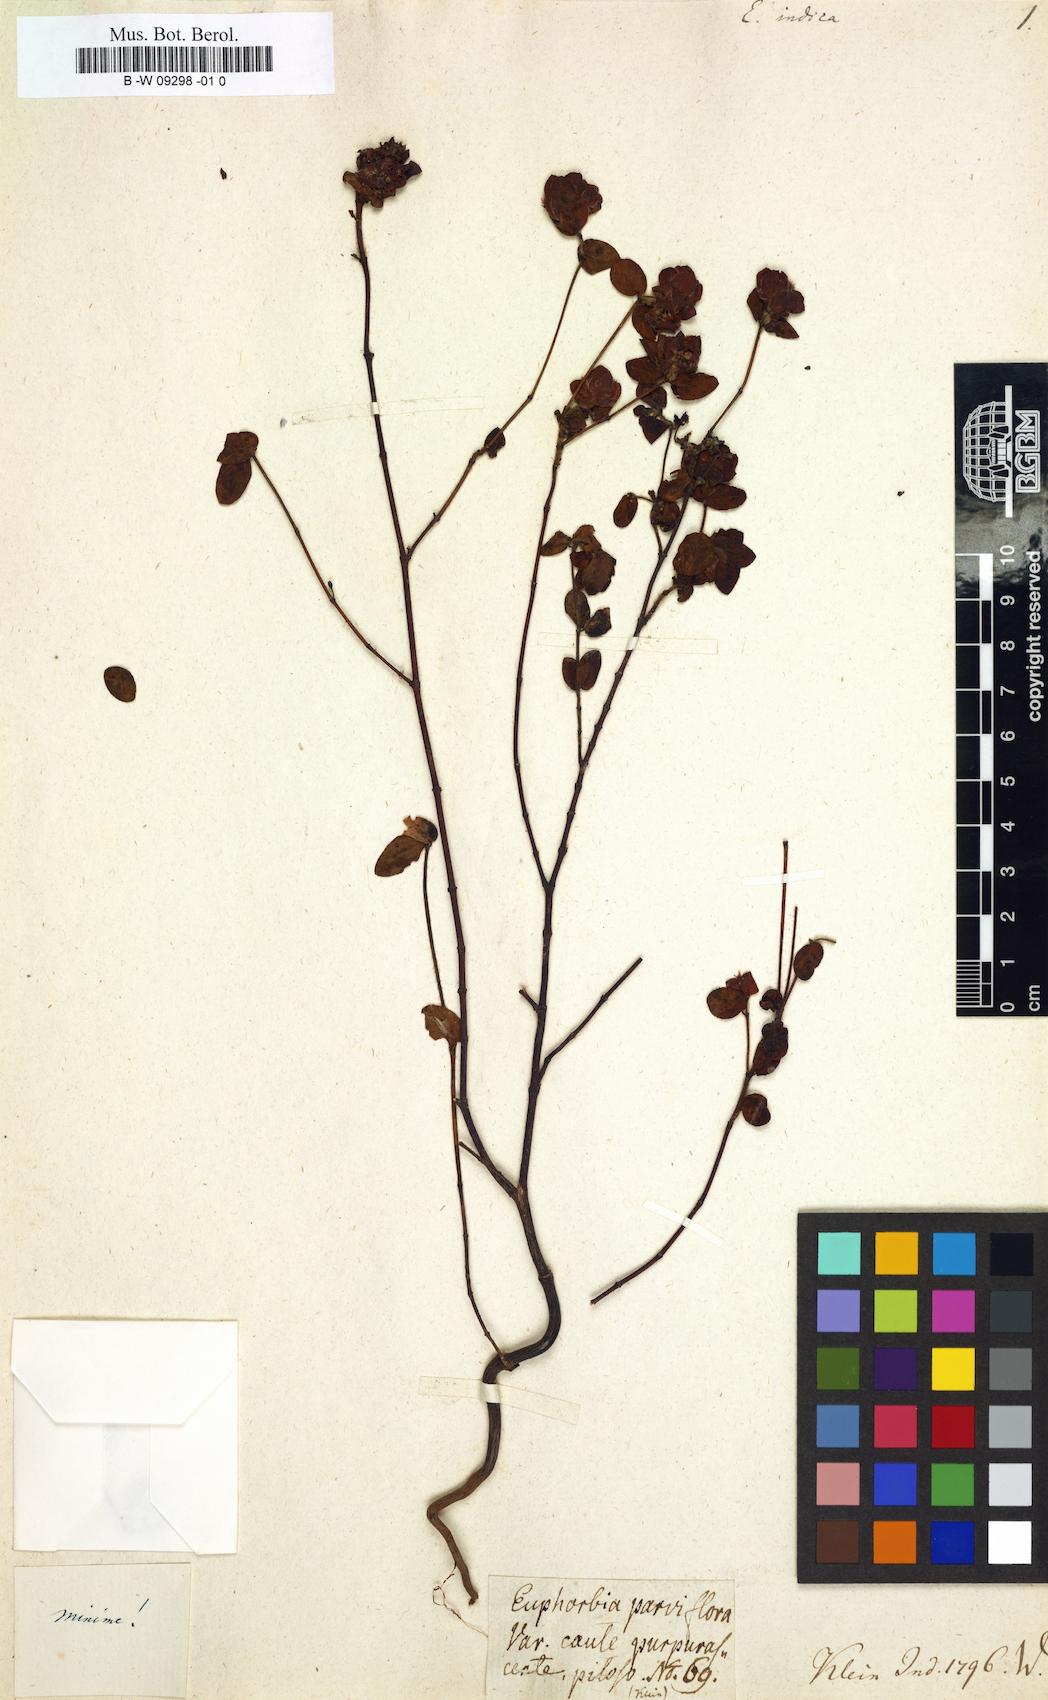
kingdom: Plantae
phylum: Tracheophyta
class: Magnoliopsida
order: Malpighiales
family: Euphorbiaceae
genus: Euphorbia
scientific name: Euphorbia indica
